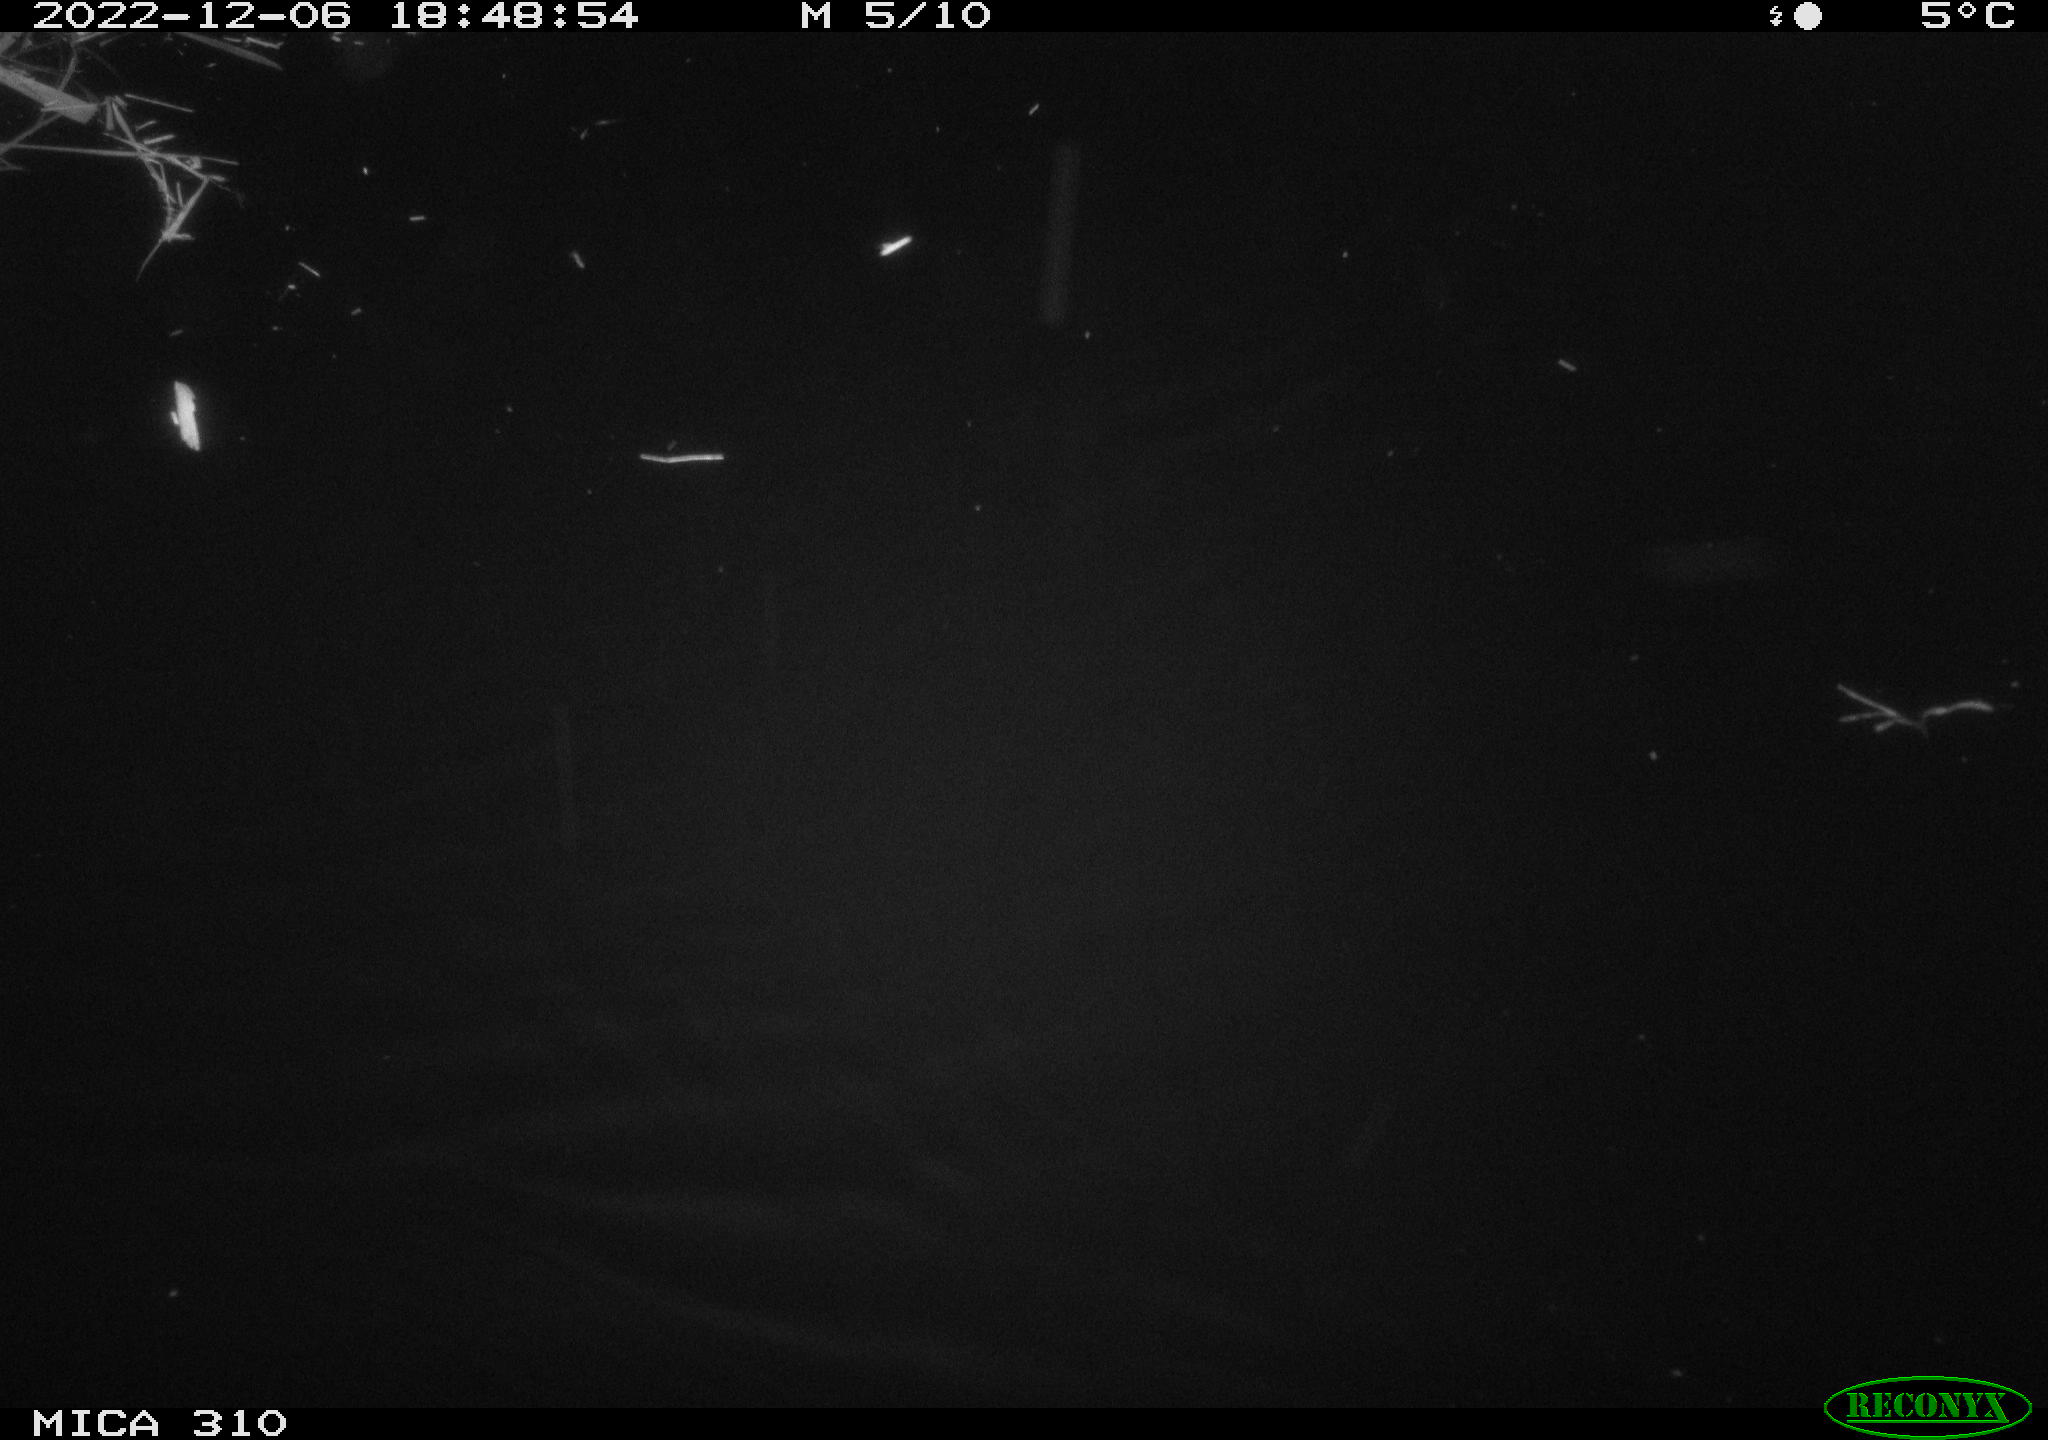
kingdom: Animalia
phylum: Chordata
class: Mammalia
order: Rodentia
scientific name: Rodentia
